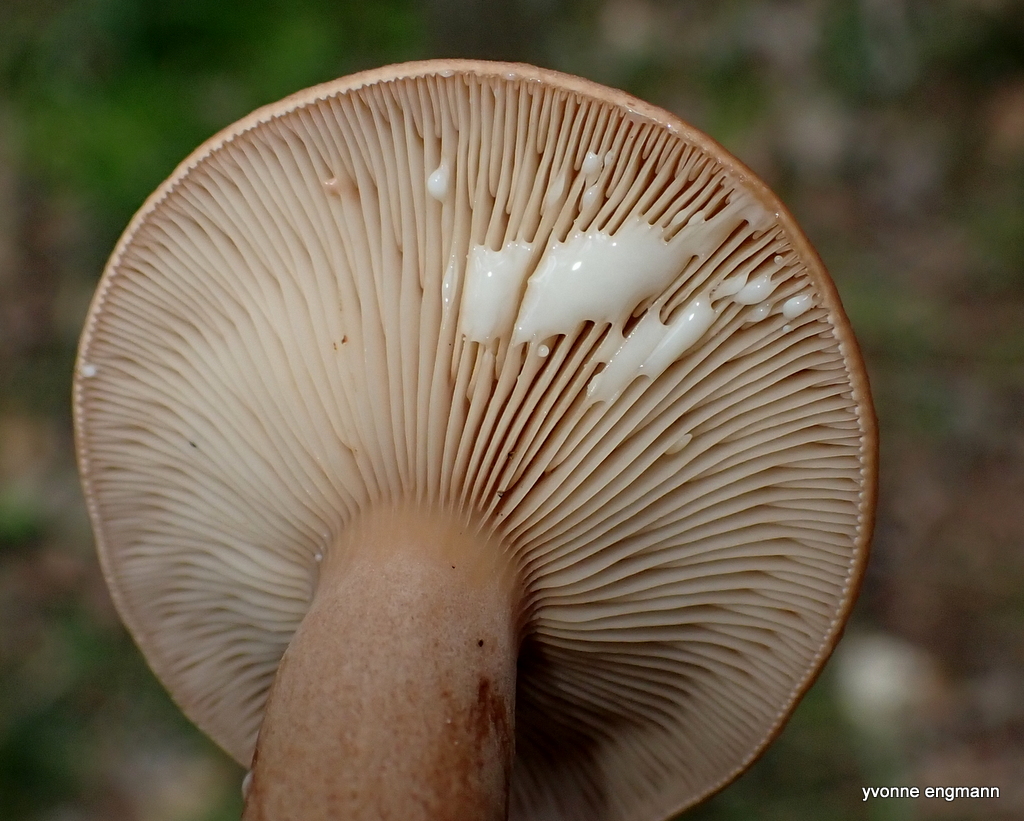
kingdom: Fungi
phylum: Basidiomycota
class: Agaricomycetes
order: Russulales
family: Russulaceae
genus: Lactarius
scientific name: Lactarius quietus
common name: ege-mælkehat
